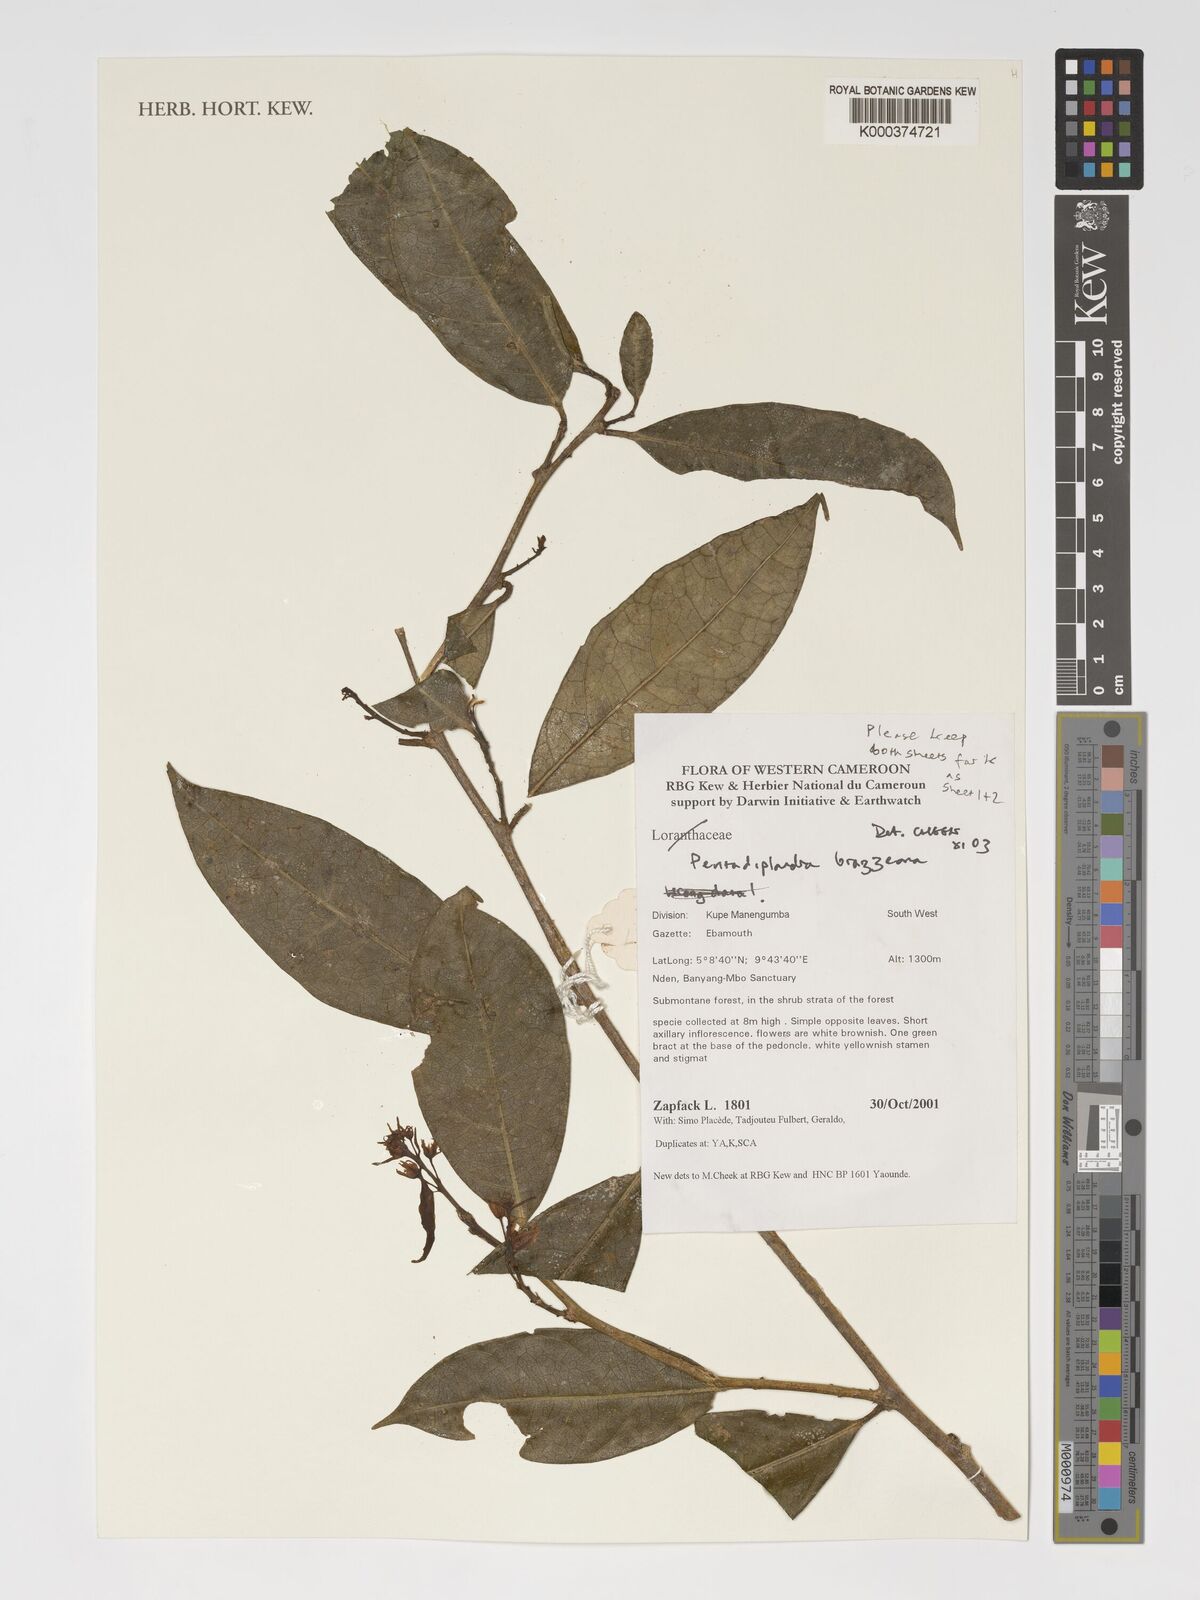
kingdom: Plantae
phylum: Tracheophyta
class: Magnoliopsida
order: Brassicales
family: Pentadiplandraceae
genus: Pentadiplandra
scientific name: Pentadiplandra brazzeana
